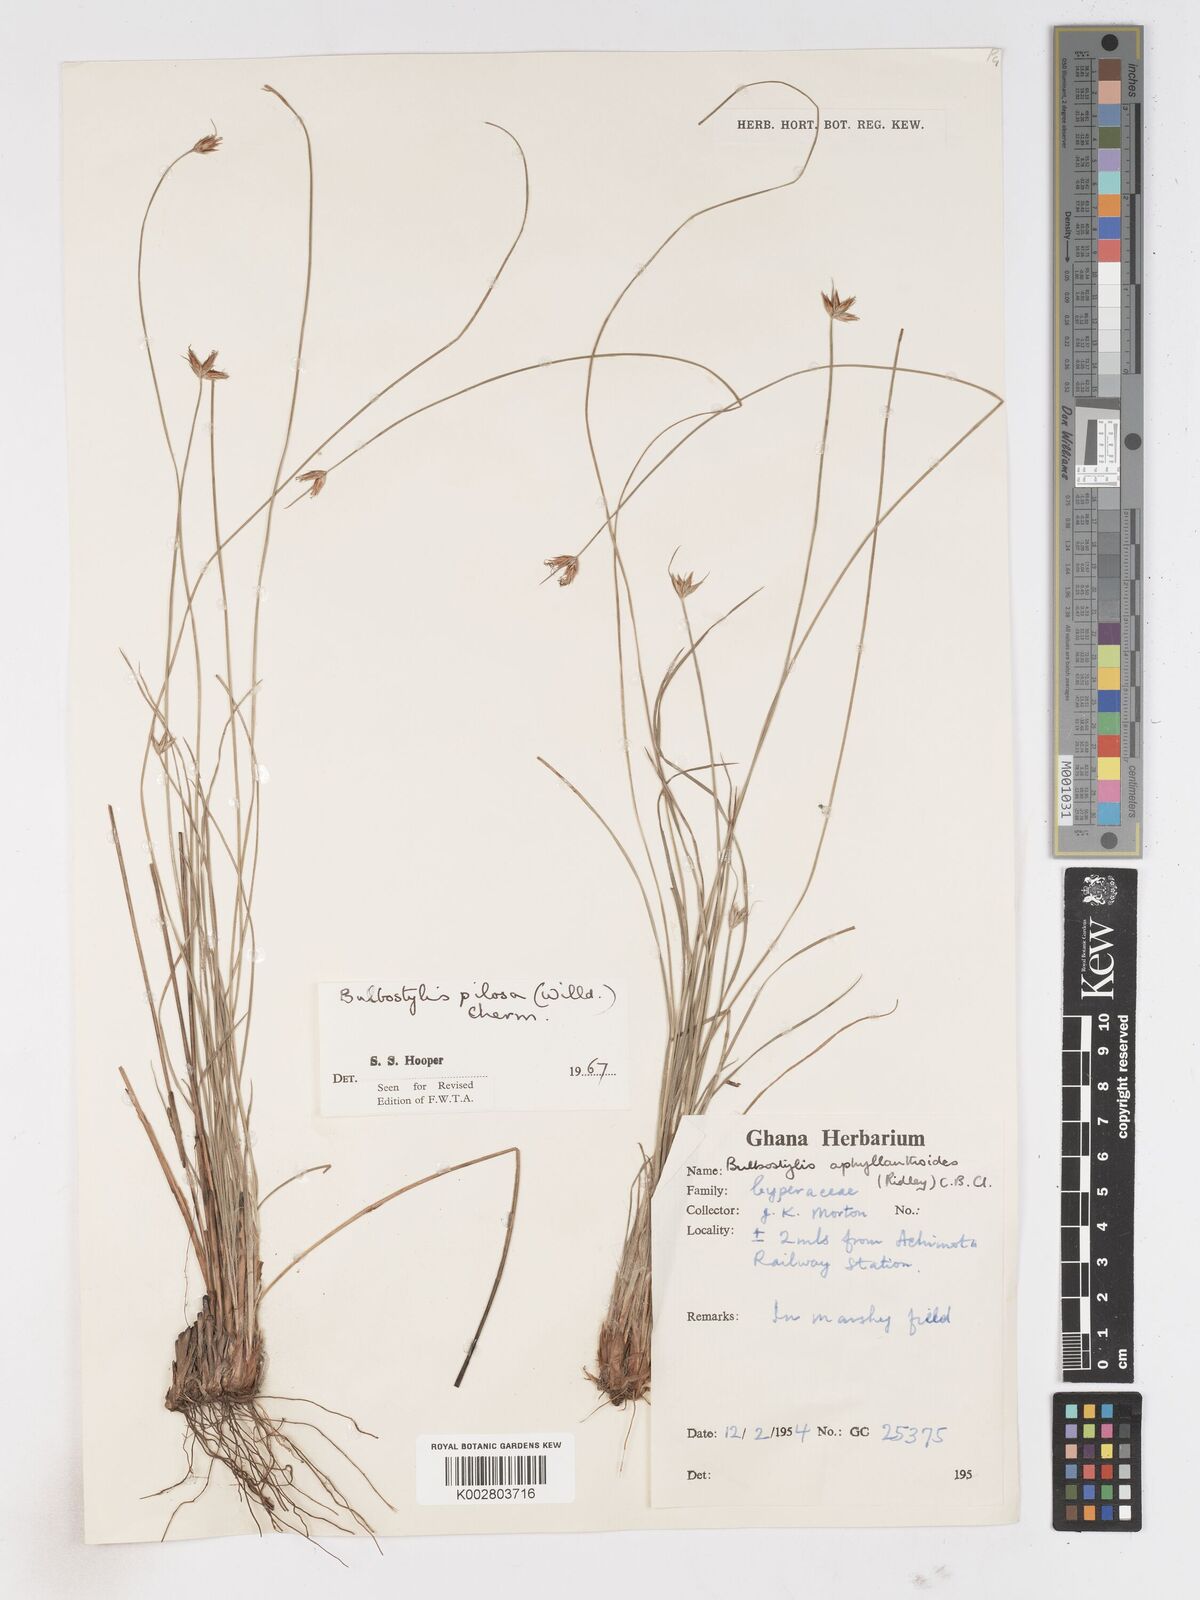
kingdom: Plantae
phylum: Tracheophyta
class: Liliopsida
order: Poales
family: Cyperaceae
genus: Bulbostylis
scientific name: Bulbostylis pilosa
